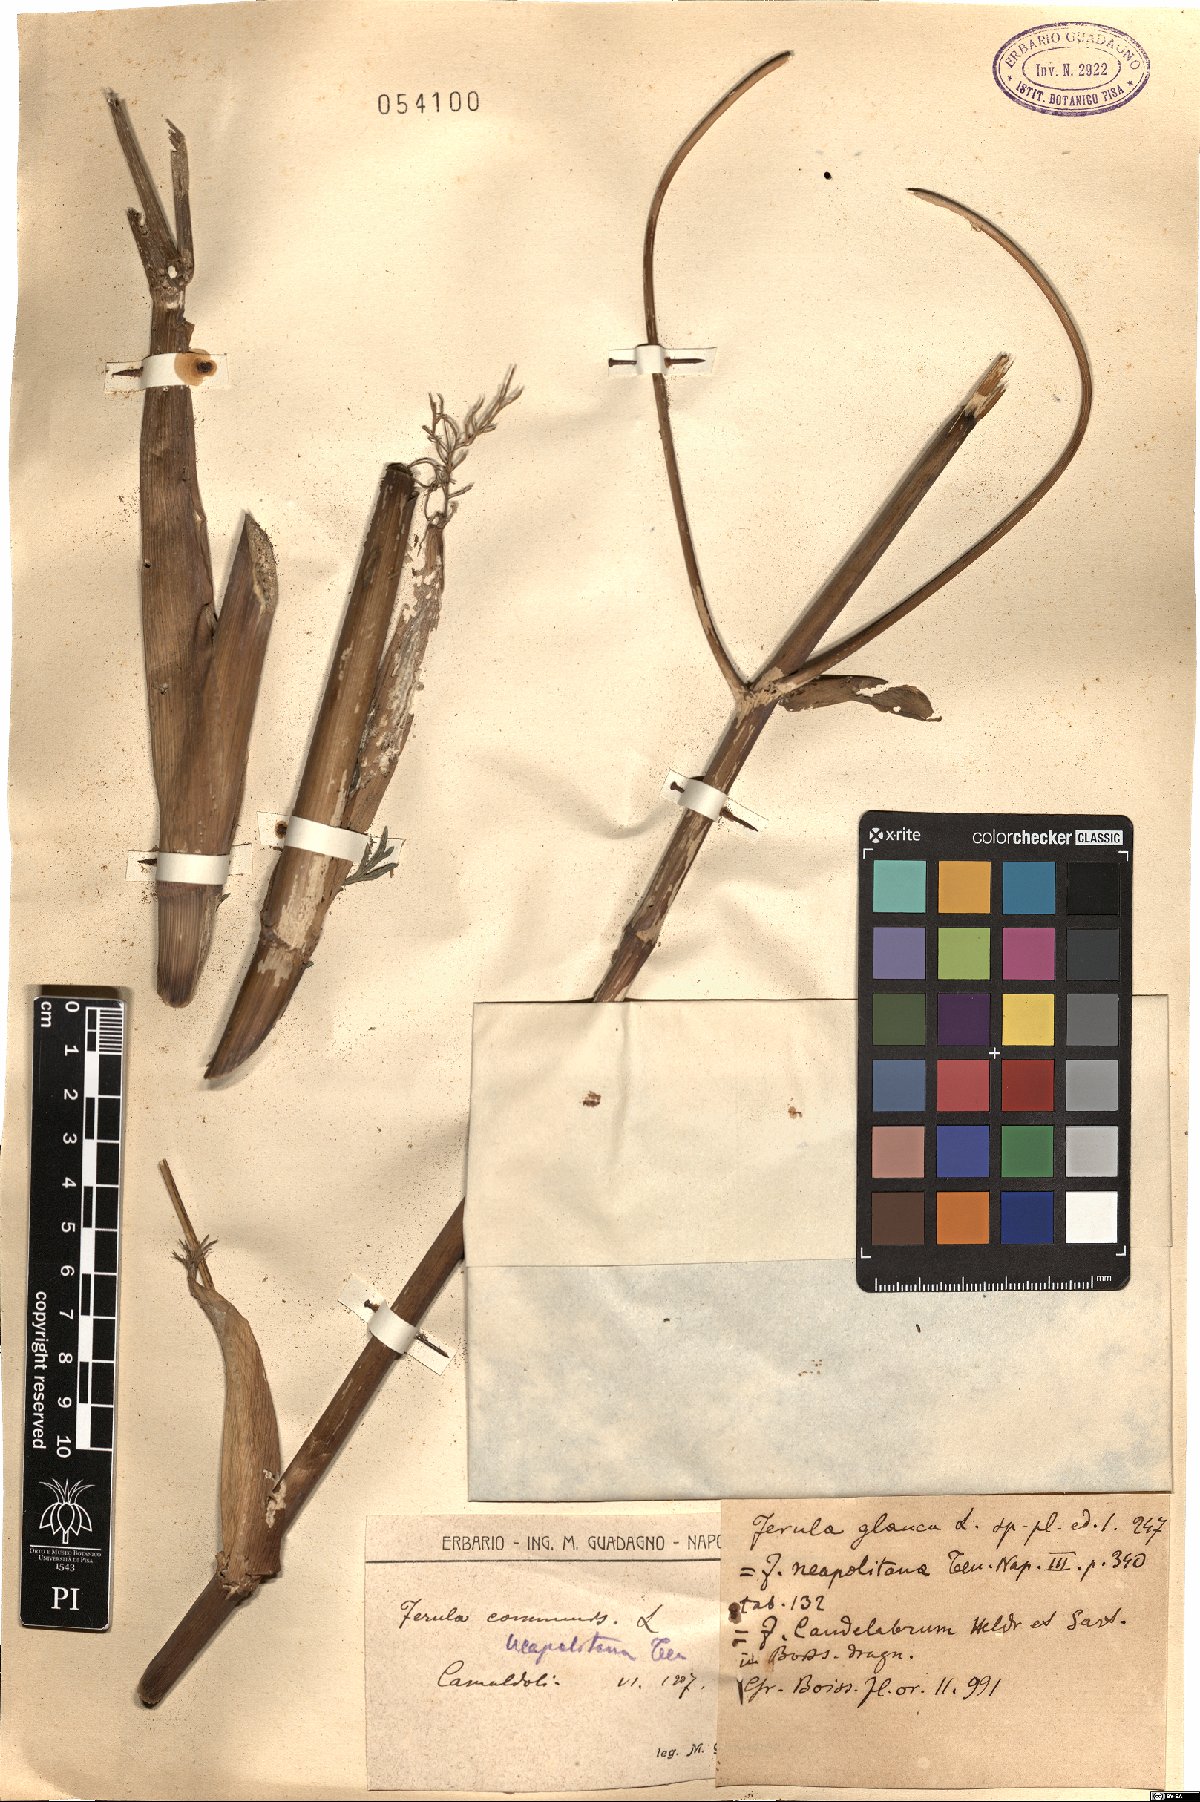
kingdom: Plantae
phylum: Tracheophyta
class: Magnoliopsida
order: Apiales
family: Apiaceae
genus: Ferula
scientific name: Ferula glauca
